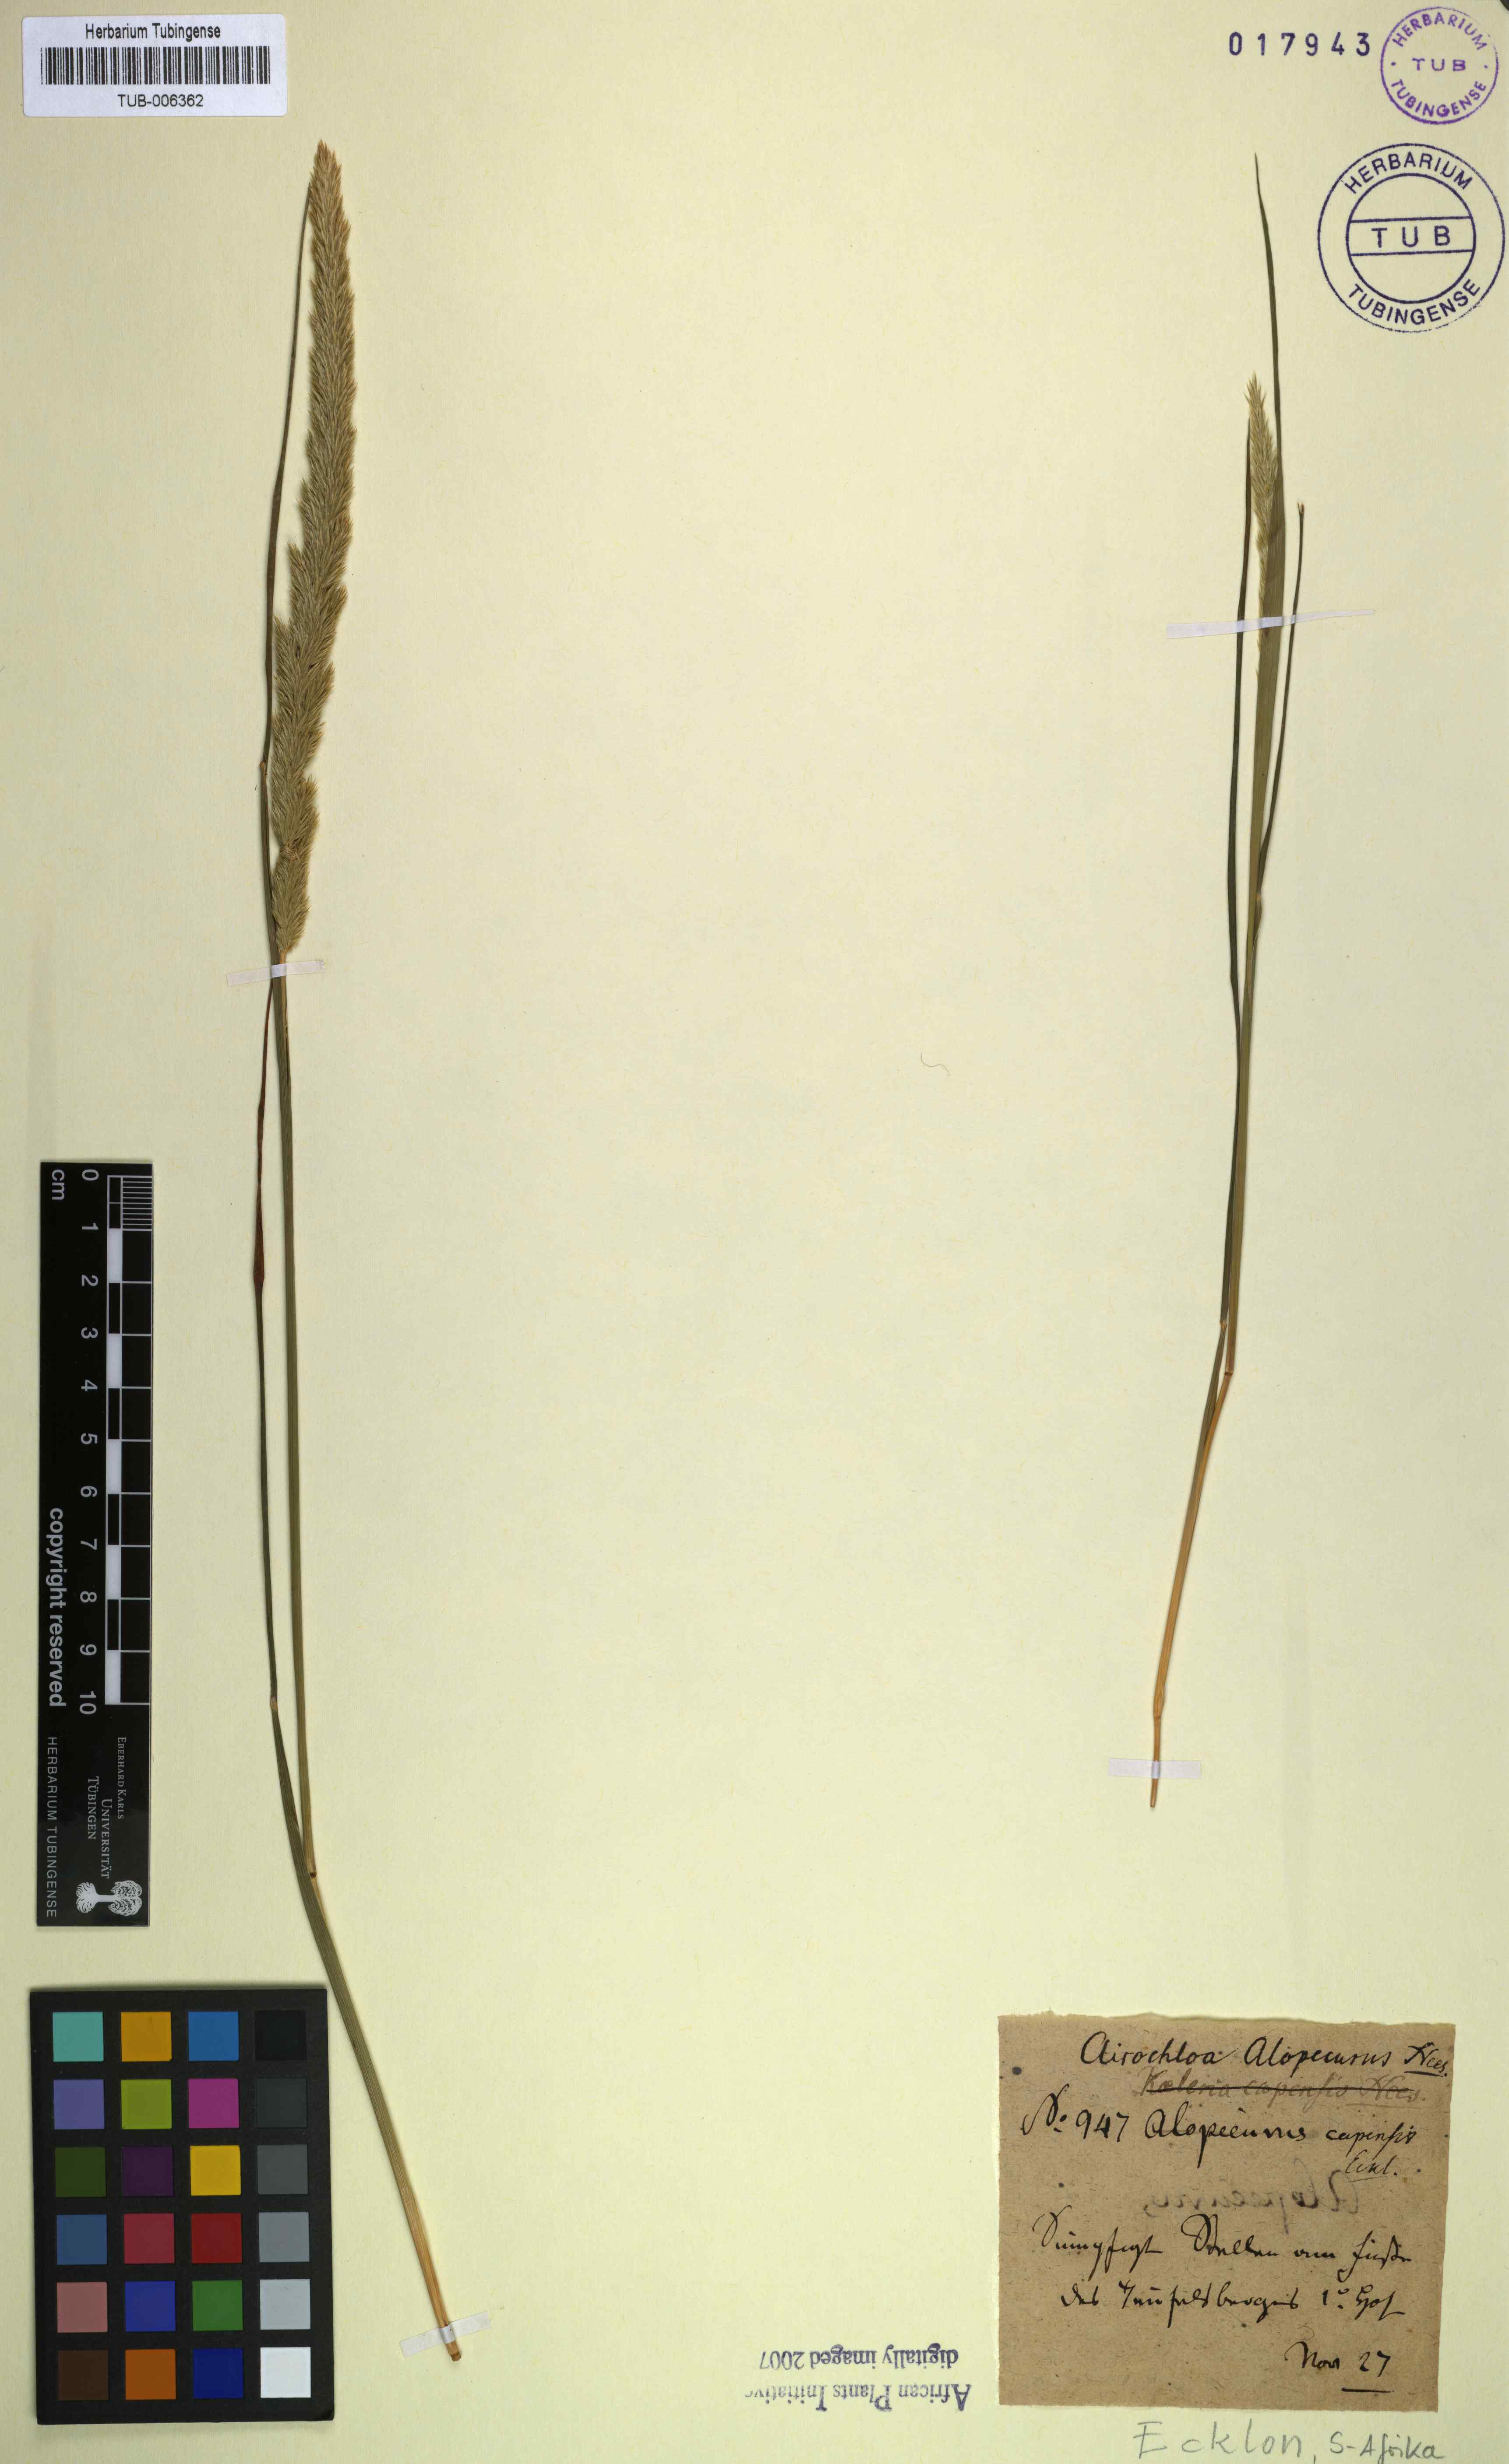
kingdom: Plantae
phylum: Tracheophyta
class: Liliopsida
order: Poales
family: Poaceae
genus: Koeleria
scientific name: Koeleria capensis
